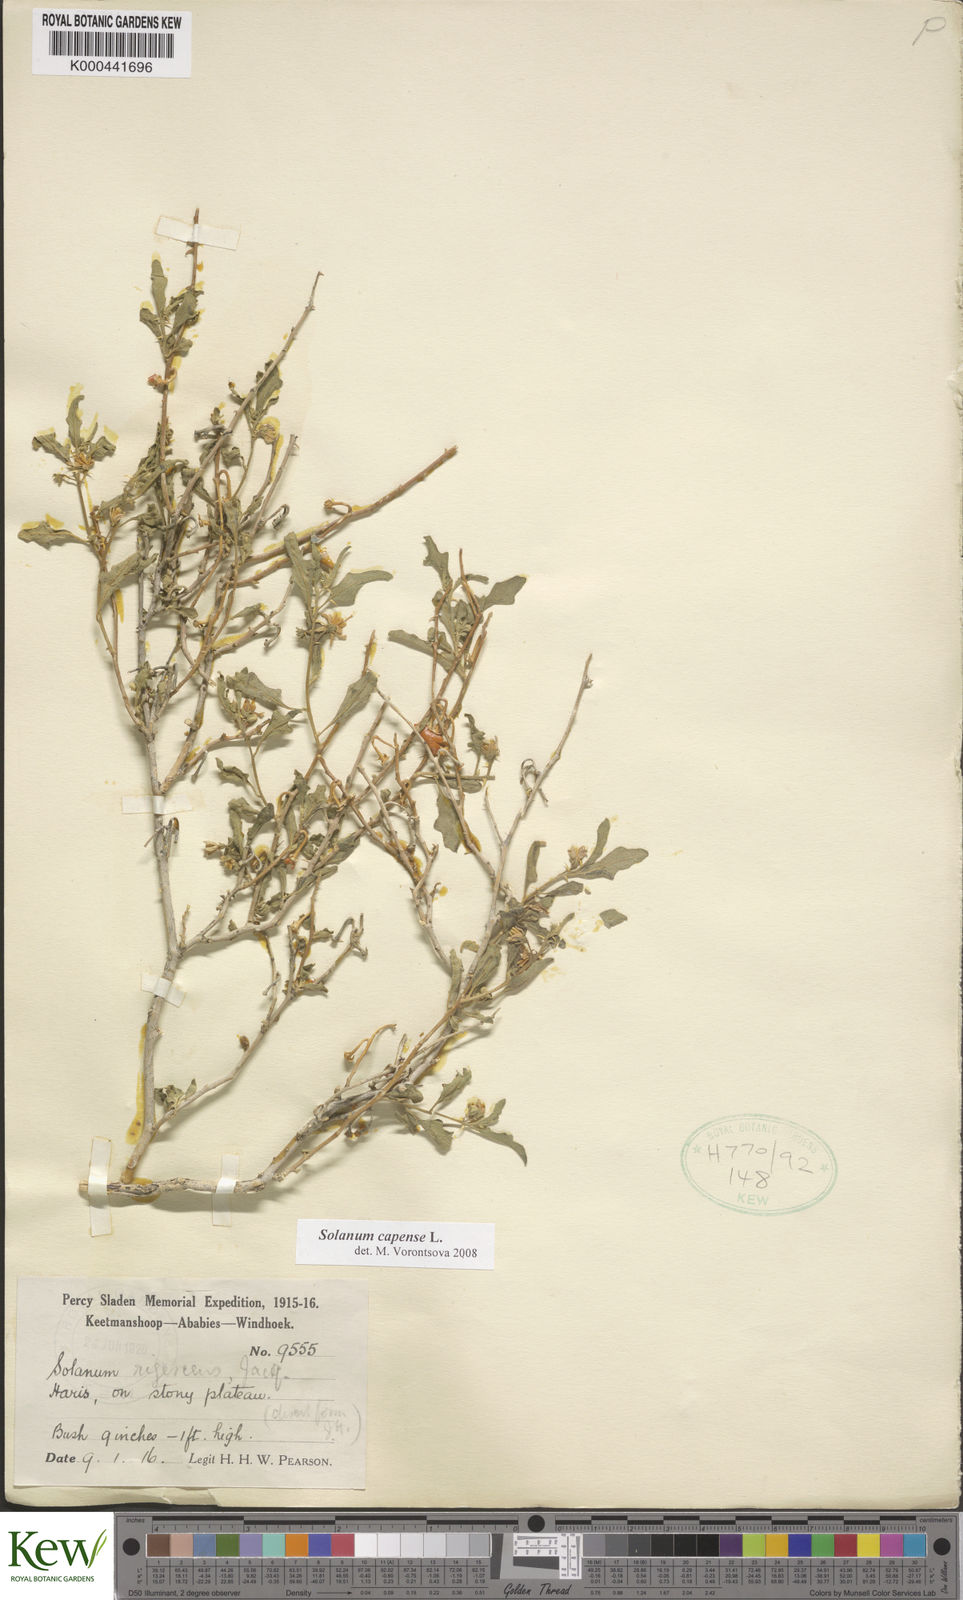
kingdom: Plantae
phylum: Tracheophyta
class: Magnoliopsida
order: Solanales
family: Solanaceae
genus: Solanum
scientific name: Solanum capense
